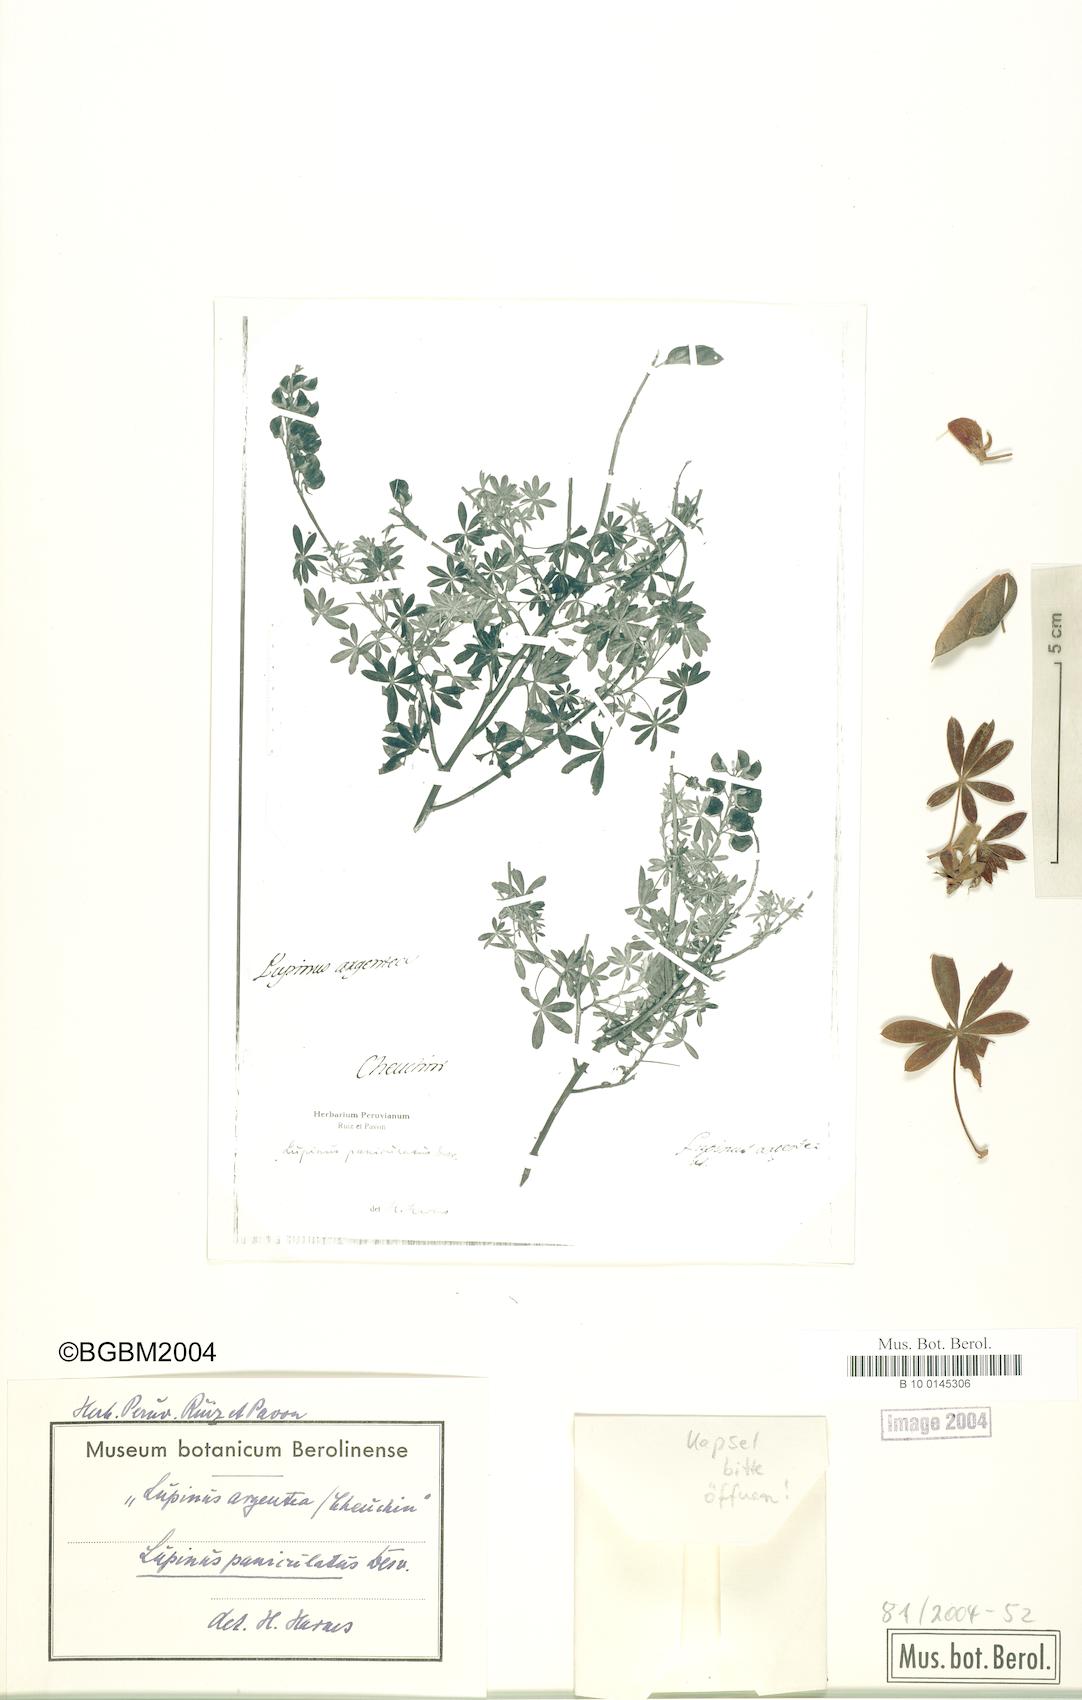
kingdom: Plantae
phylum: Tracheophyta
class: Magnoliopsida
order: Fabales
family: Fabaceae
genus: Lupinus
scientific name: Lupinus paniculatus
